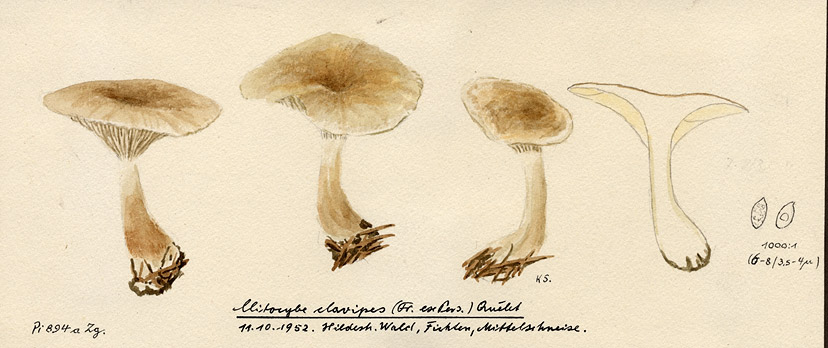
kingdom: Fungi
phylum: Basidiomycota
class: Agaricomycetes
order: Agaricales
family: Hygrophoraceae
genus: Ampulloclitocybe
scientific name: Ampulloclitocybe clavipes
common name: Club foot
